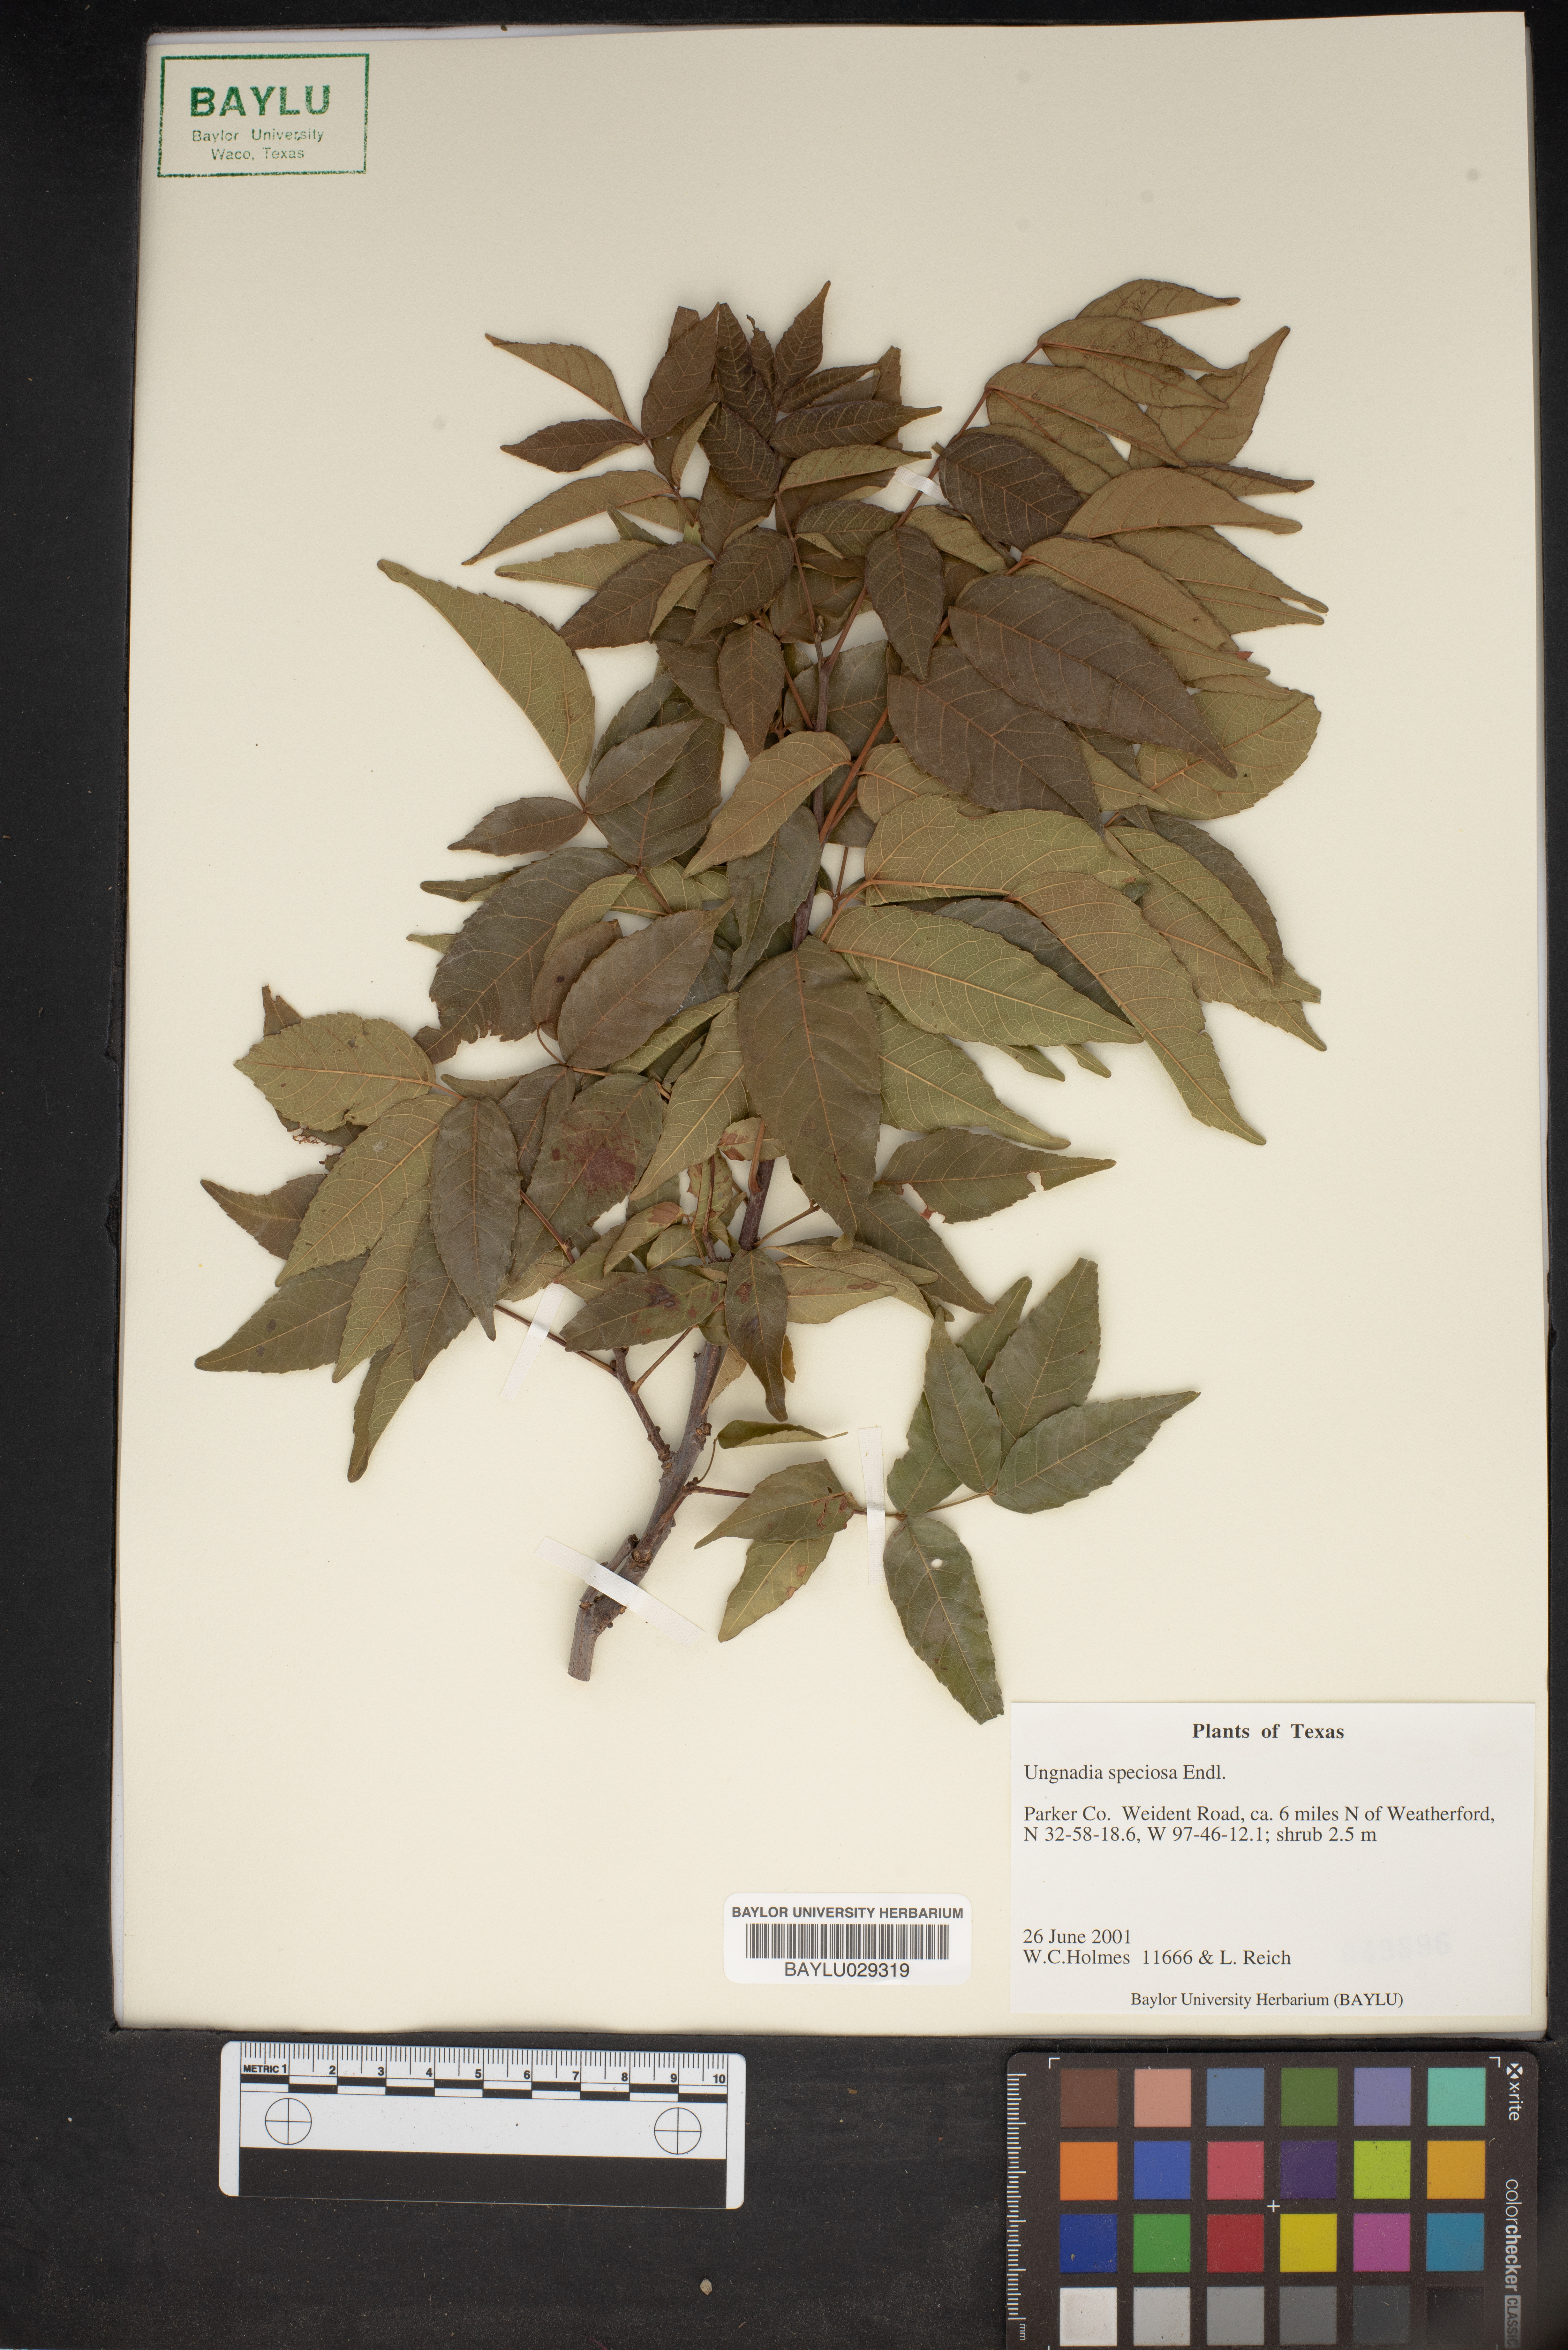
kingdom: Plantae
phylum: Tracheophyta
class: Magnoliopsida
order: Sapindales
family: Sapindaceae
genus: Ungnadia
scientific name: Ungnadia speciosa
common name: Texas-buckeye
